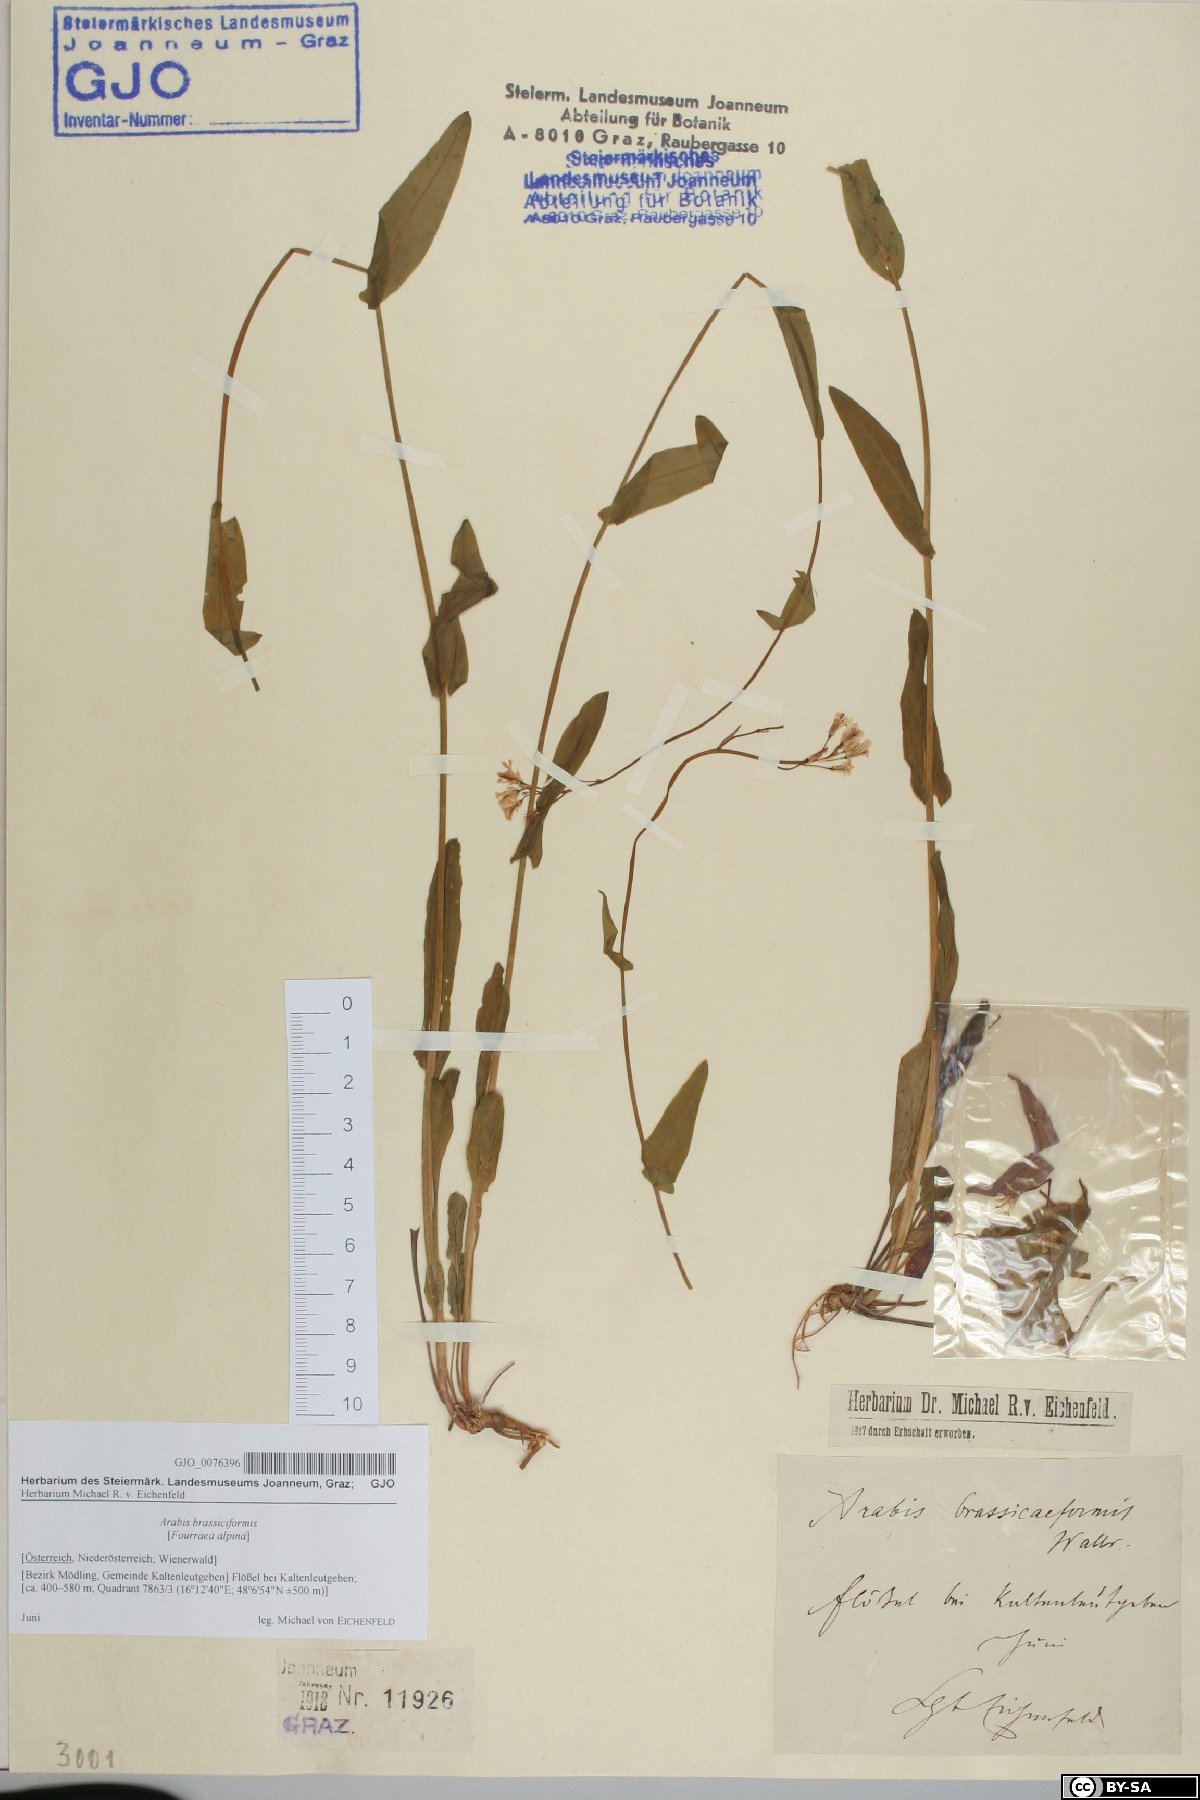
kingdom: Plantae
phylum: Tracheophyta
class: Magnoliopsida
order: Brassicales
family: Brassicaceae
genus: Fourraea
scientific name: Fourraea alpina
